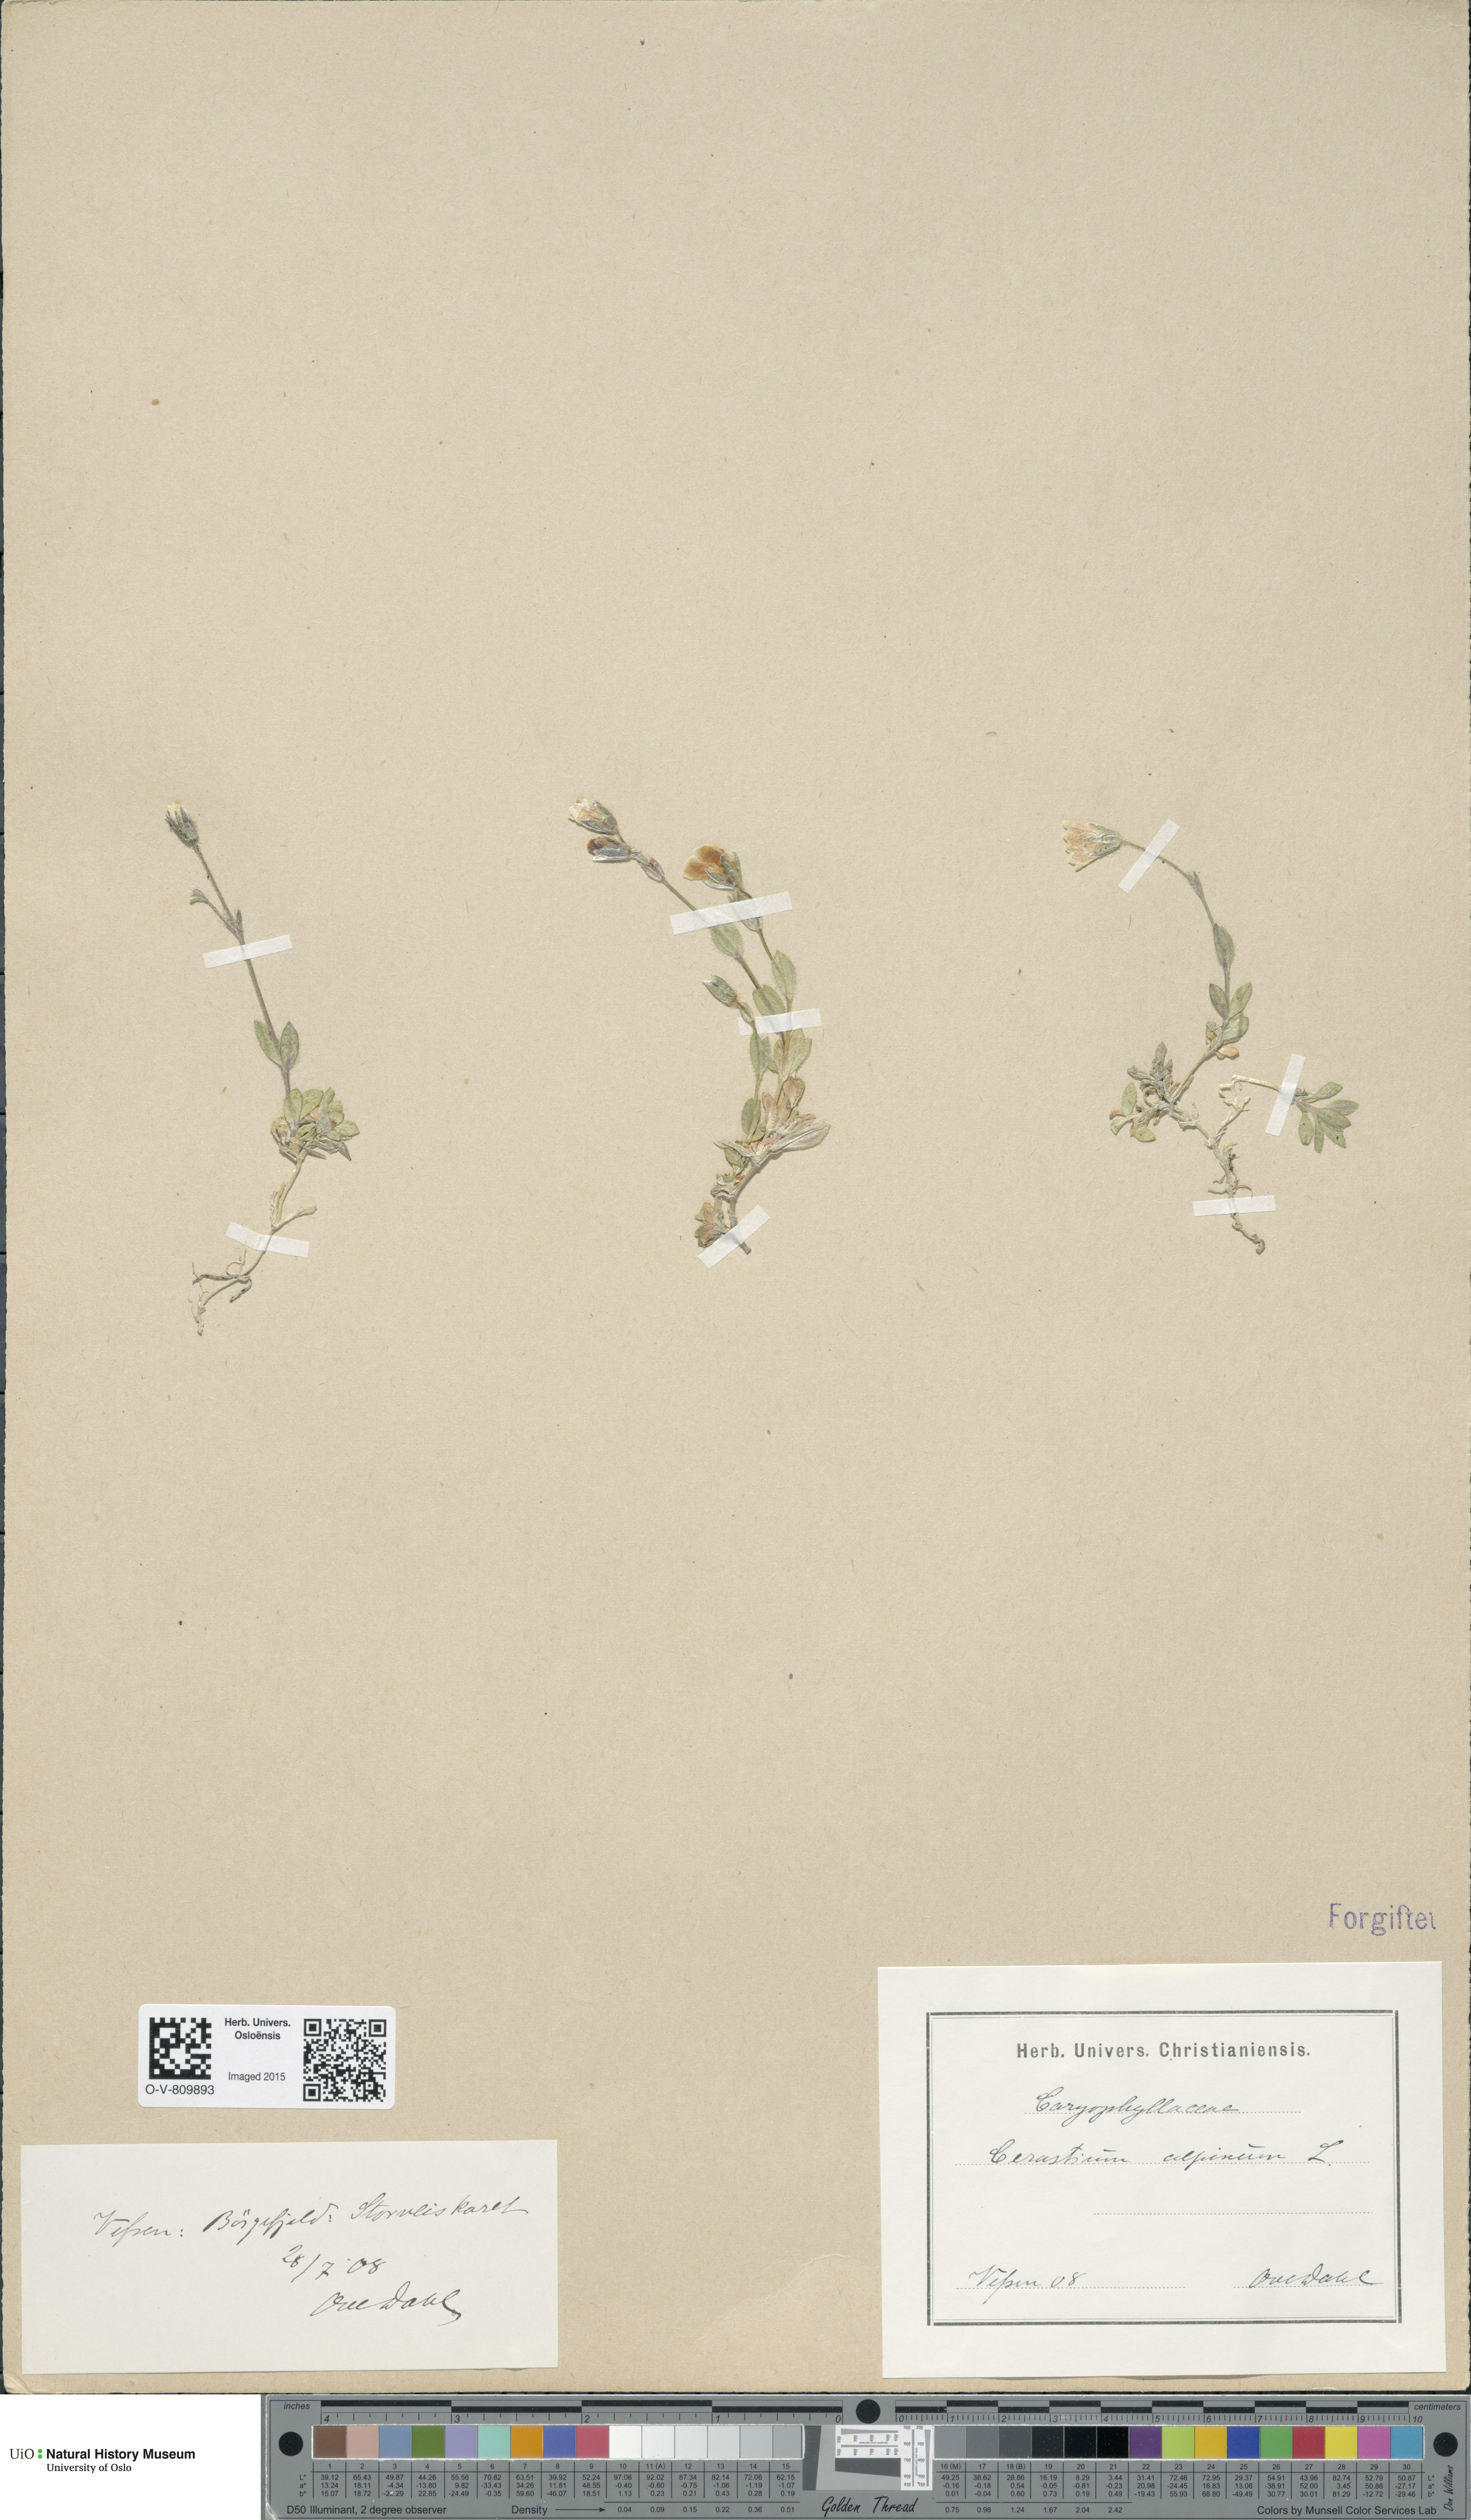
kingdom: Plantae
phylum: Tracheophyta
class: Magnoliopsida
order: Caryophyllales
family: Caryophyllaceae
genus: Cerastium
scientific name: Cerastium alpinum
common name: Alpine mouse-ear
